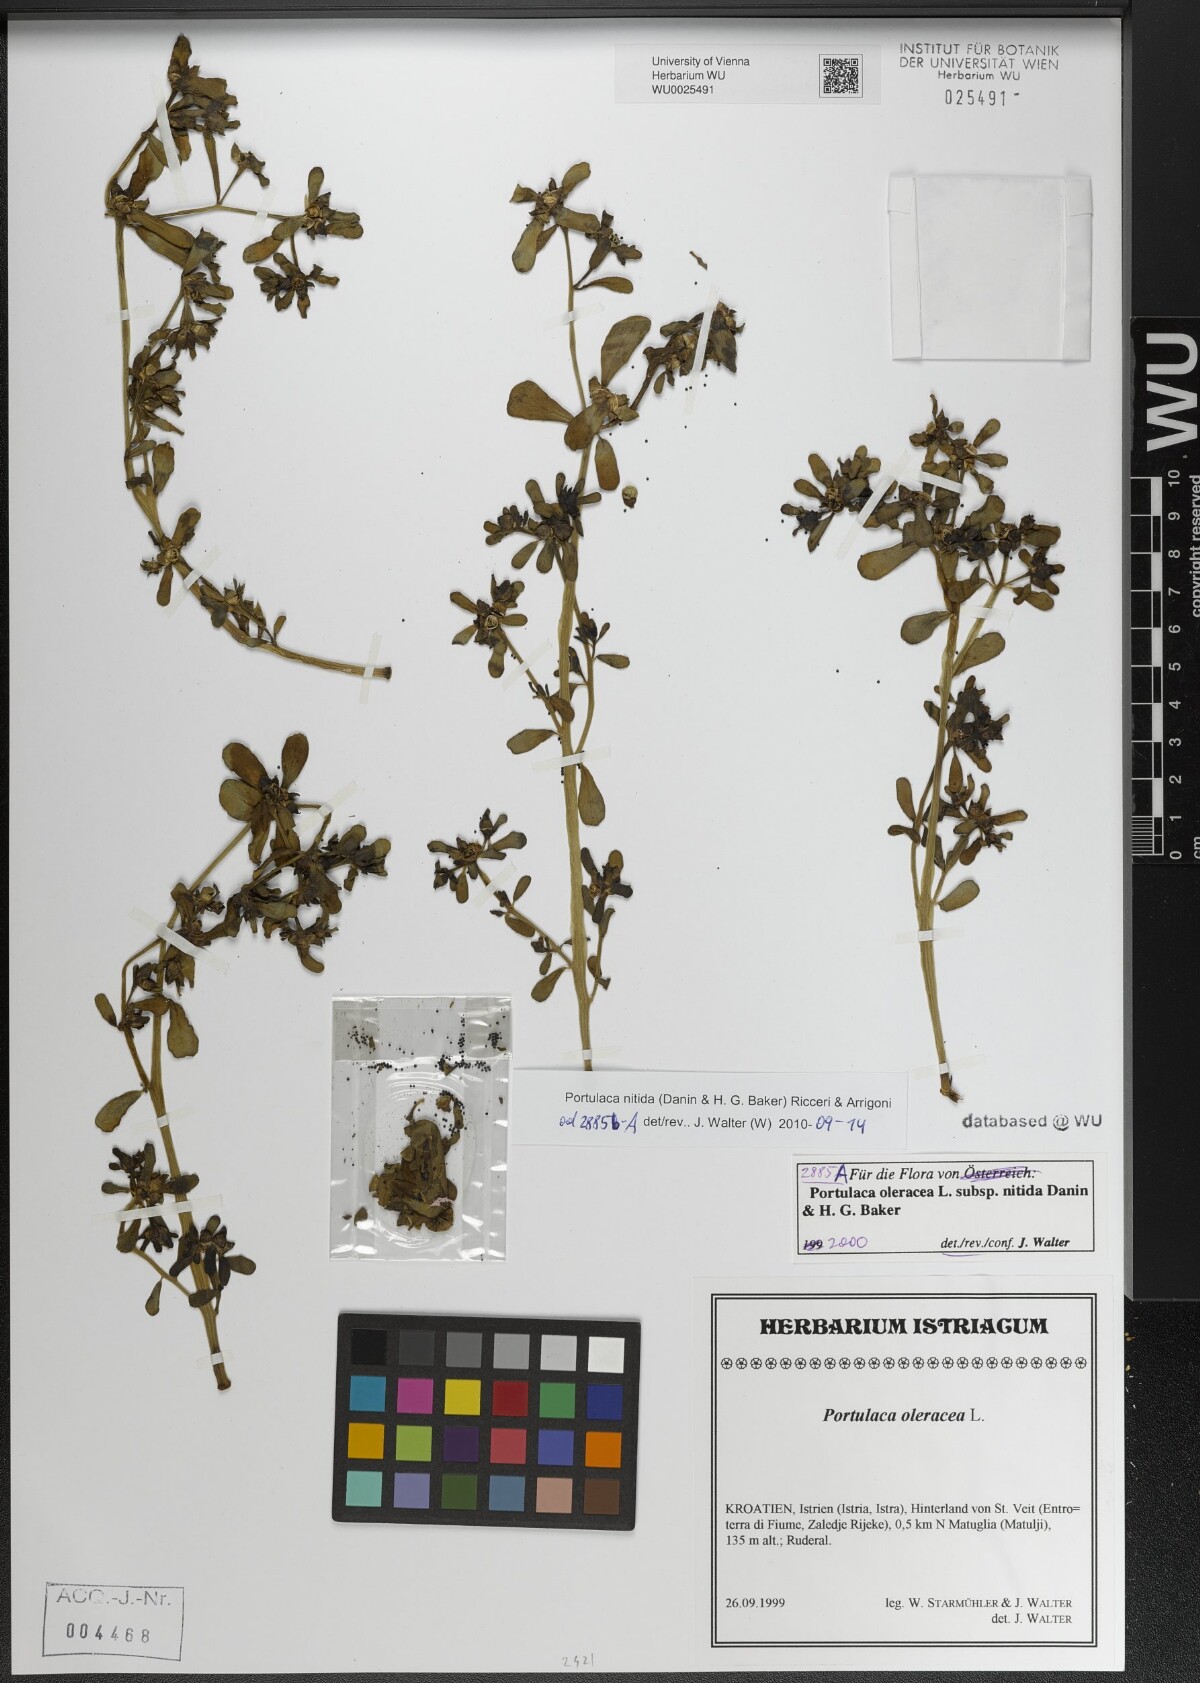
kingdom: Plantae
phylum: Tracheophyta
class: Magnoliopsida
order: Caryophyllales
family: Portulacaceae
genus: Portulaca
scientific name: Portulaca nitida
